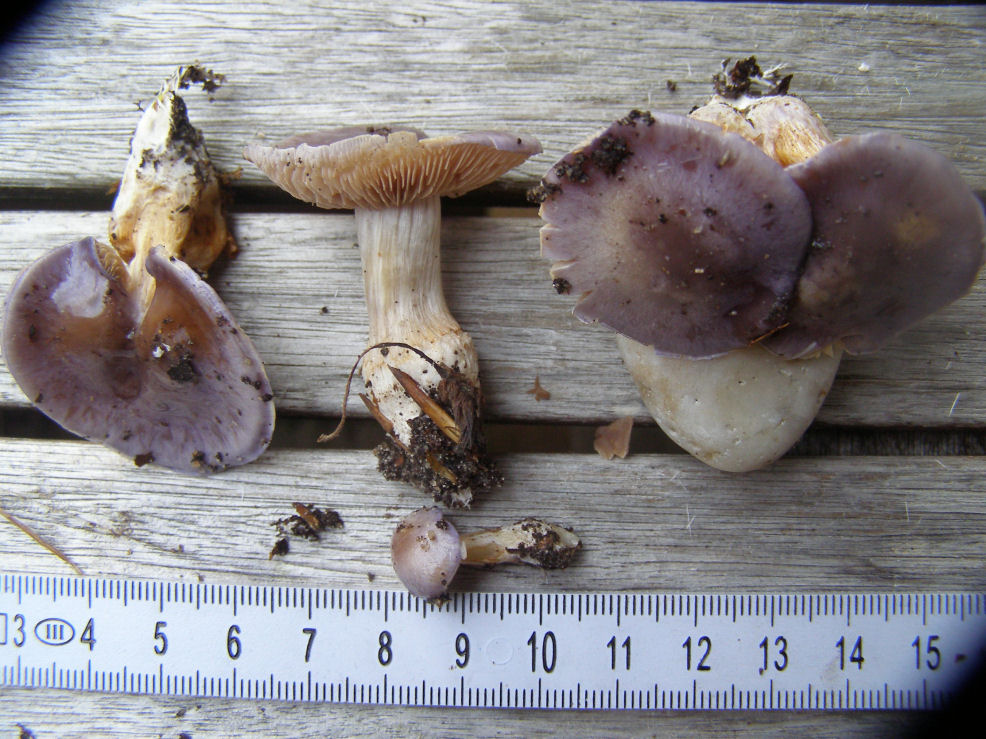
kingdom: Fungi
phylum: Basidiomycota
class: Agaricomycetes
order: Agaricales
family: Cortinariaceae
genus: Thaxterogaster
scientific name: Thaxterogaster croceocoeruleus
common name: blågullig slørhat
